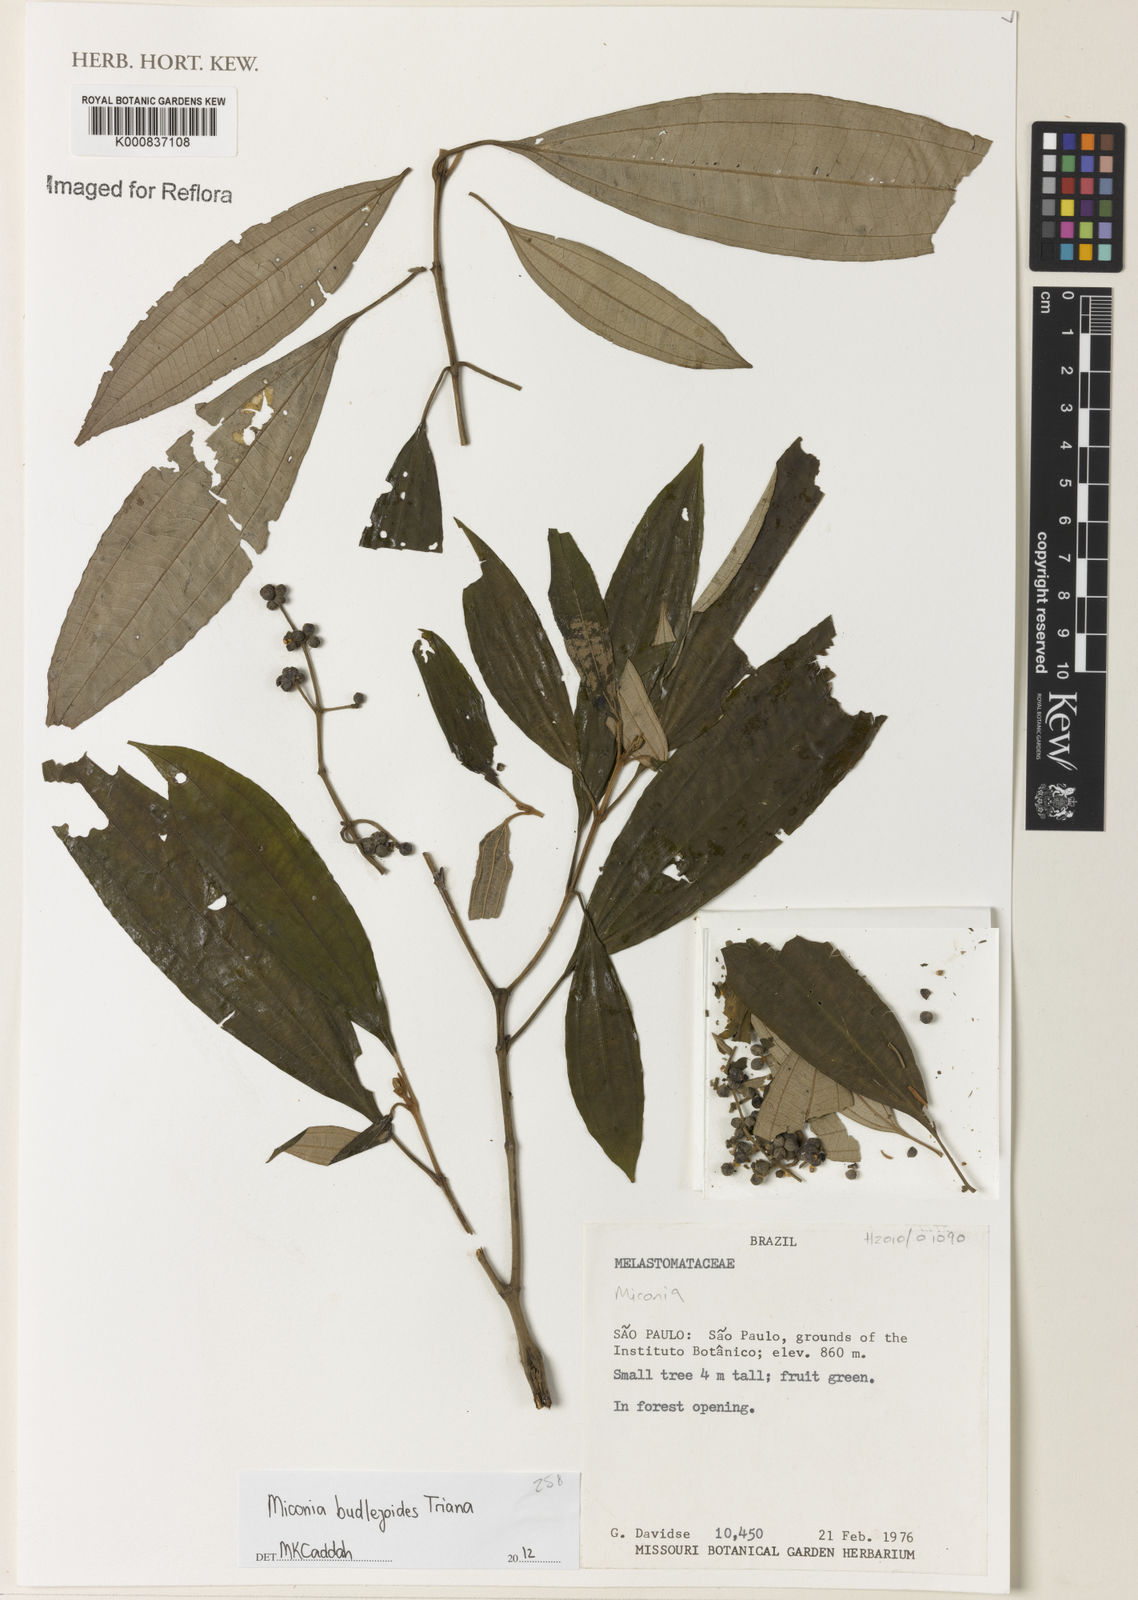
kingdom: Plantae
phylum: Tracheophyta
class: Magnoliopsida
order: Myrtales
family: Melastomataceae
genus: Miconia
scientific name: Miconia buddlejoides
